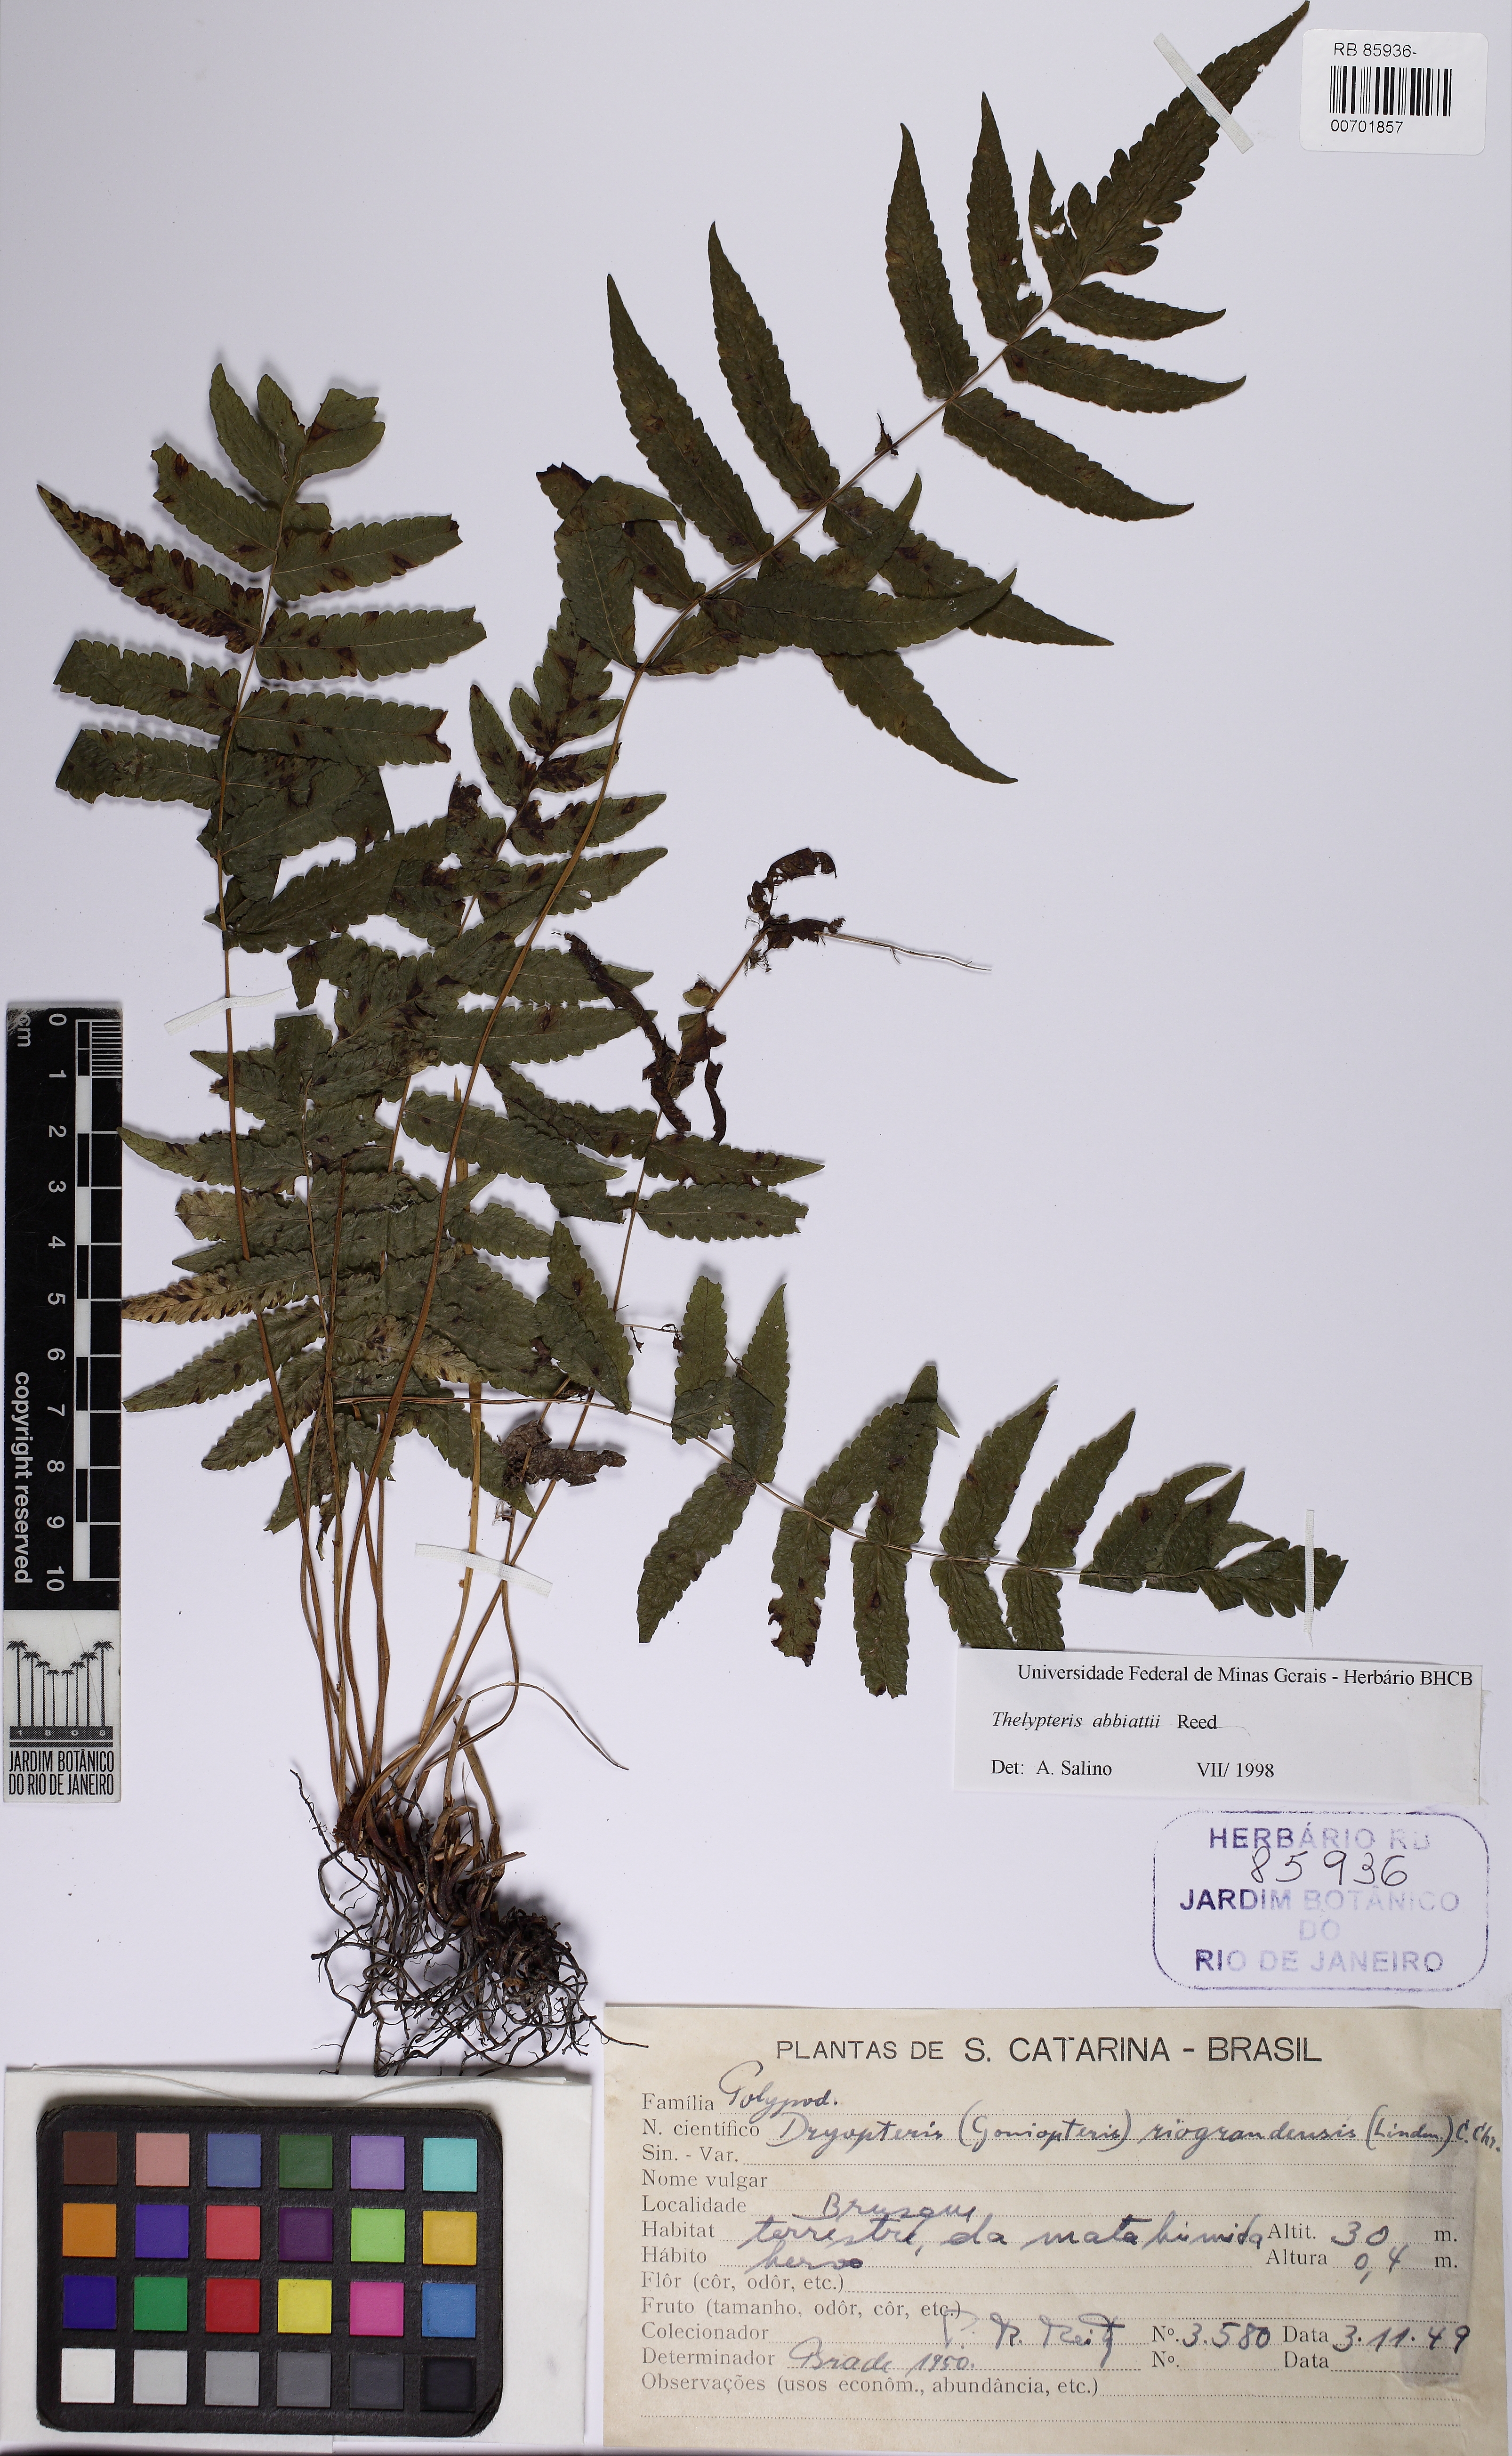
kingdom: Plantae
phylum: Tracheophyta
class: Polypodiopsida
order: Polypodiales
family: Thelypteridaceae
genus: Goniopteris
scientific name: Goniopteris burkartii
